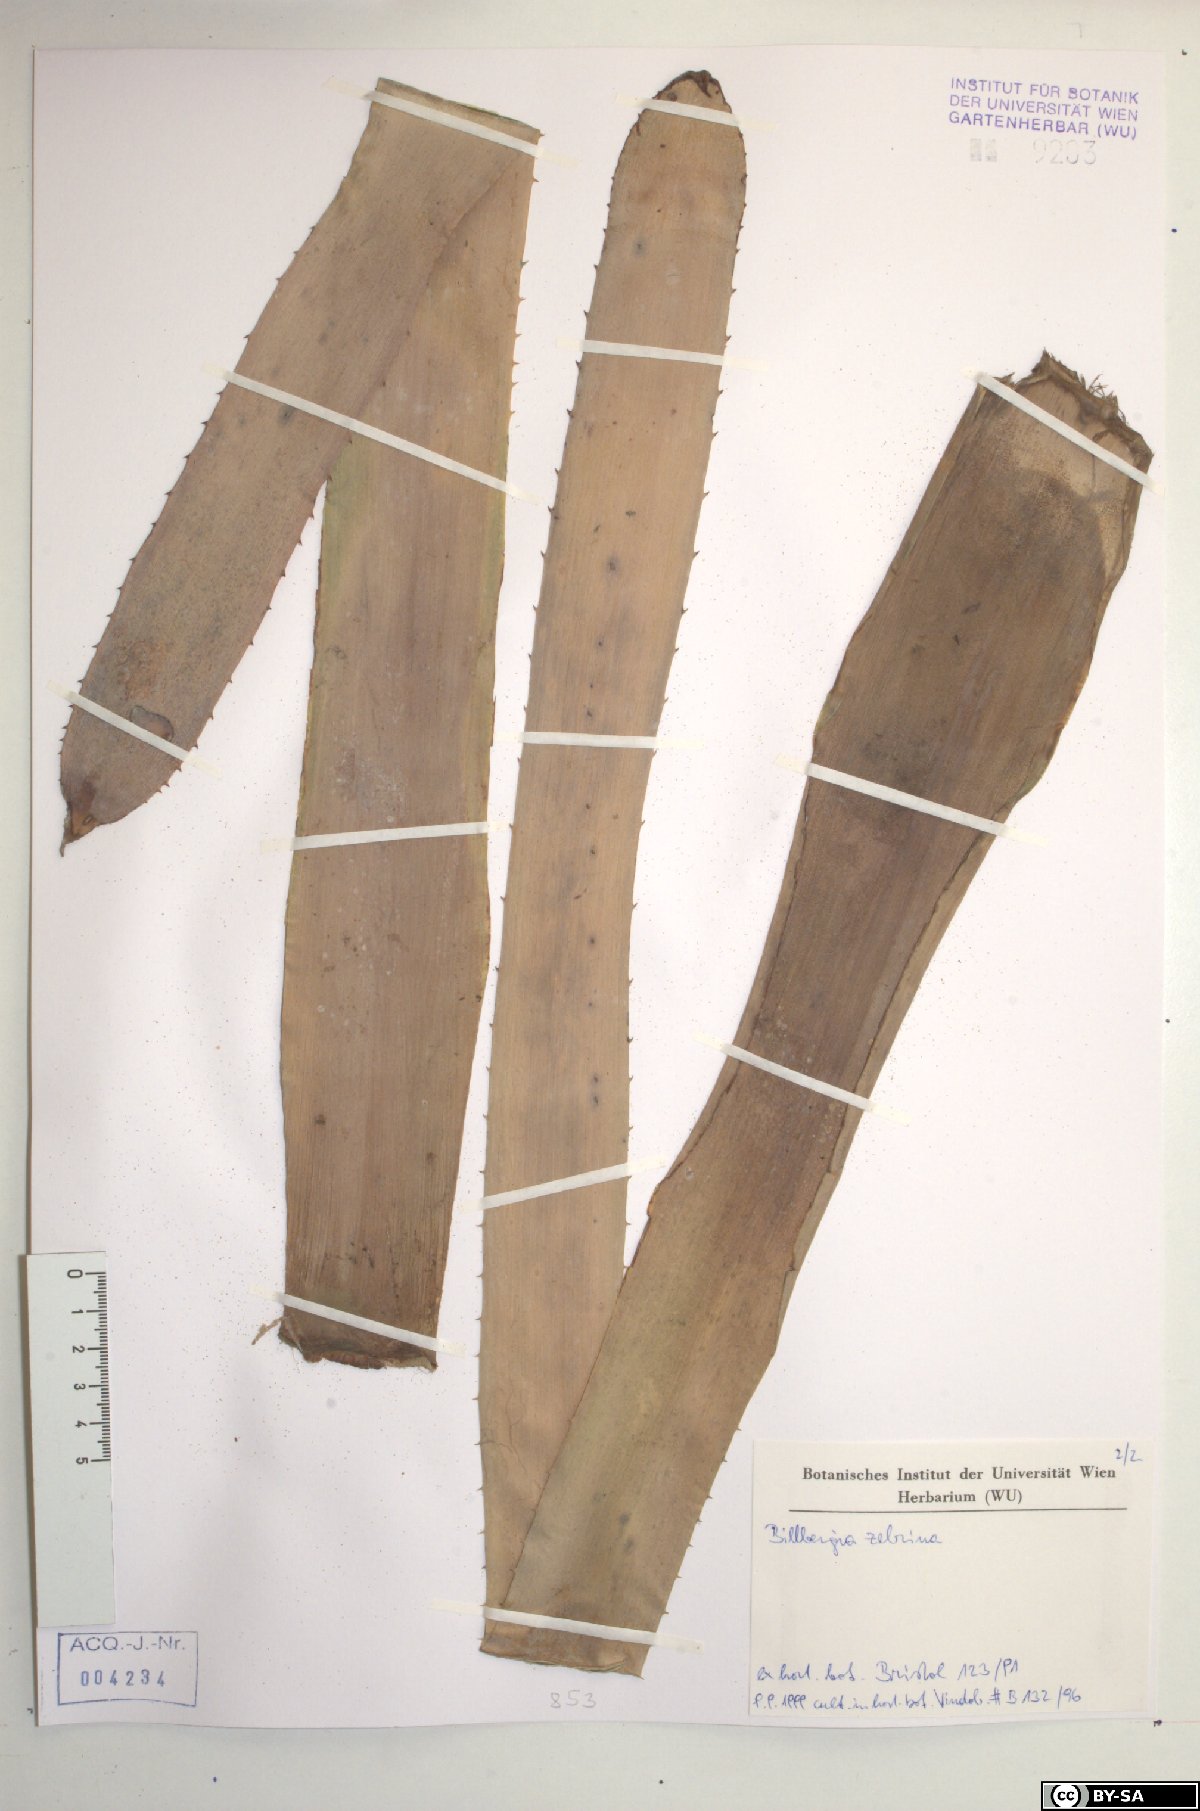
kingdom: Plantae
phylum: Tracheophyta
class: Liliopsida
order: Poales
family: Bromeliaceae
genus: Billbergia
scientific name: Billbergia zebrina
